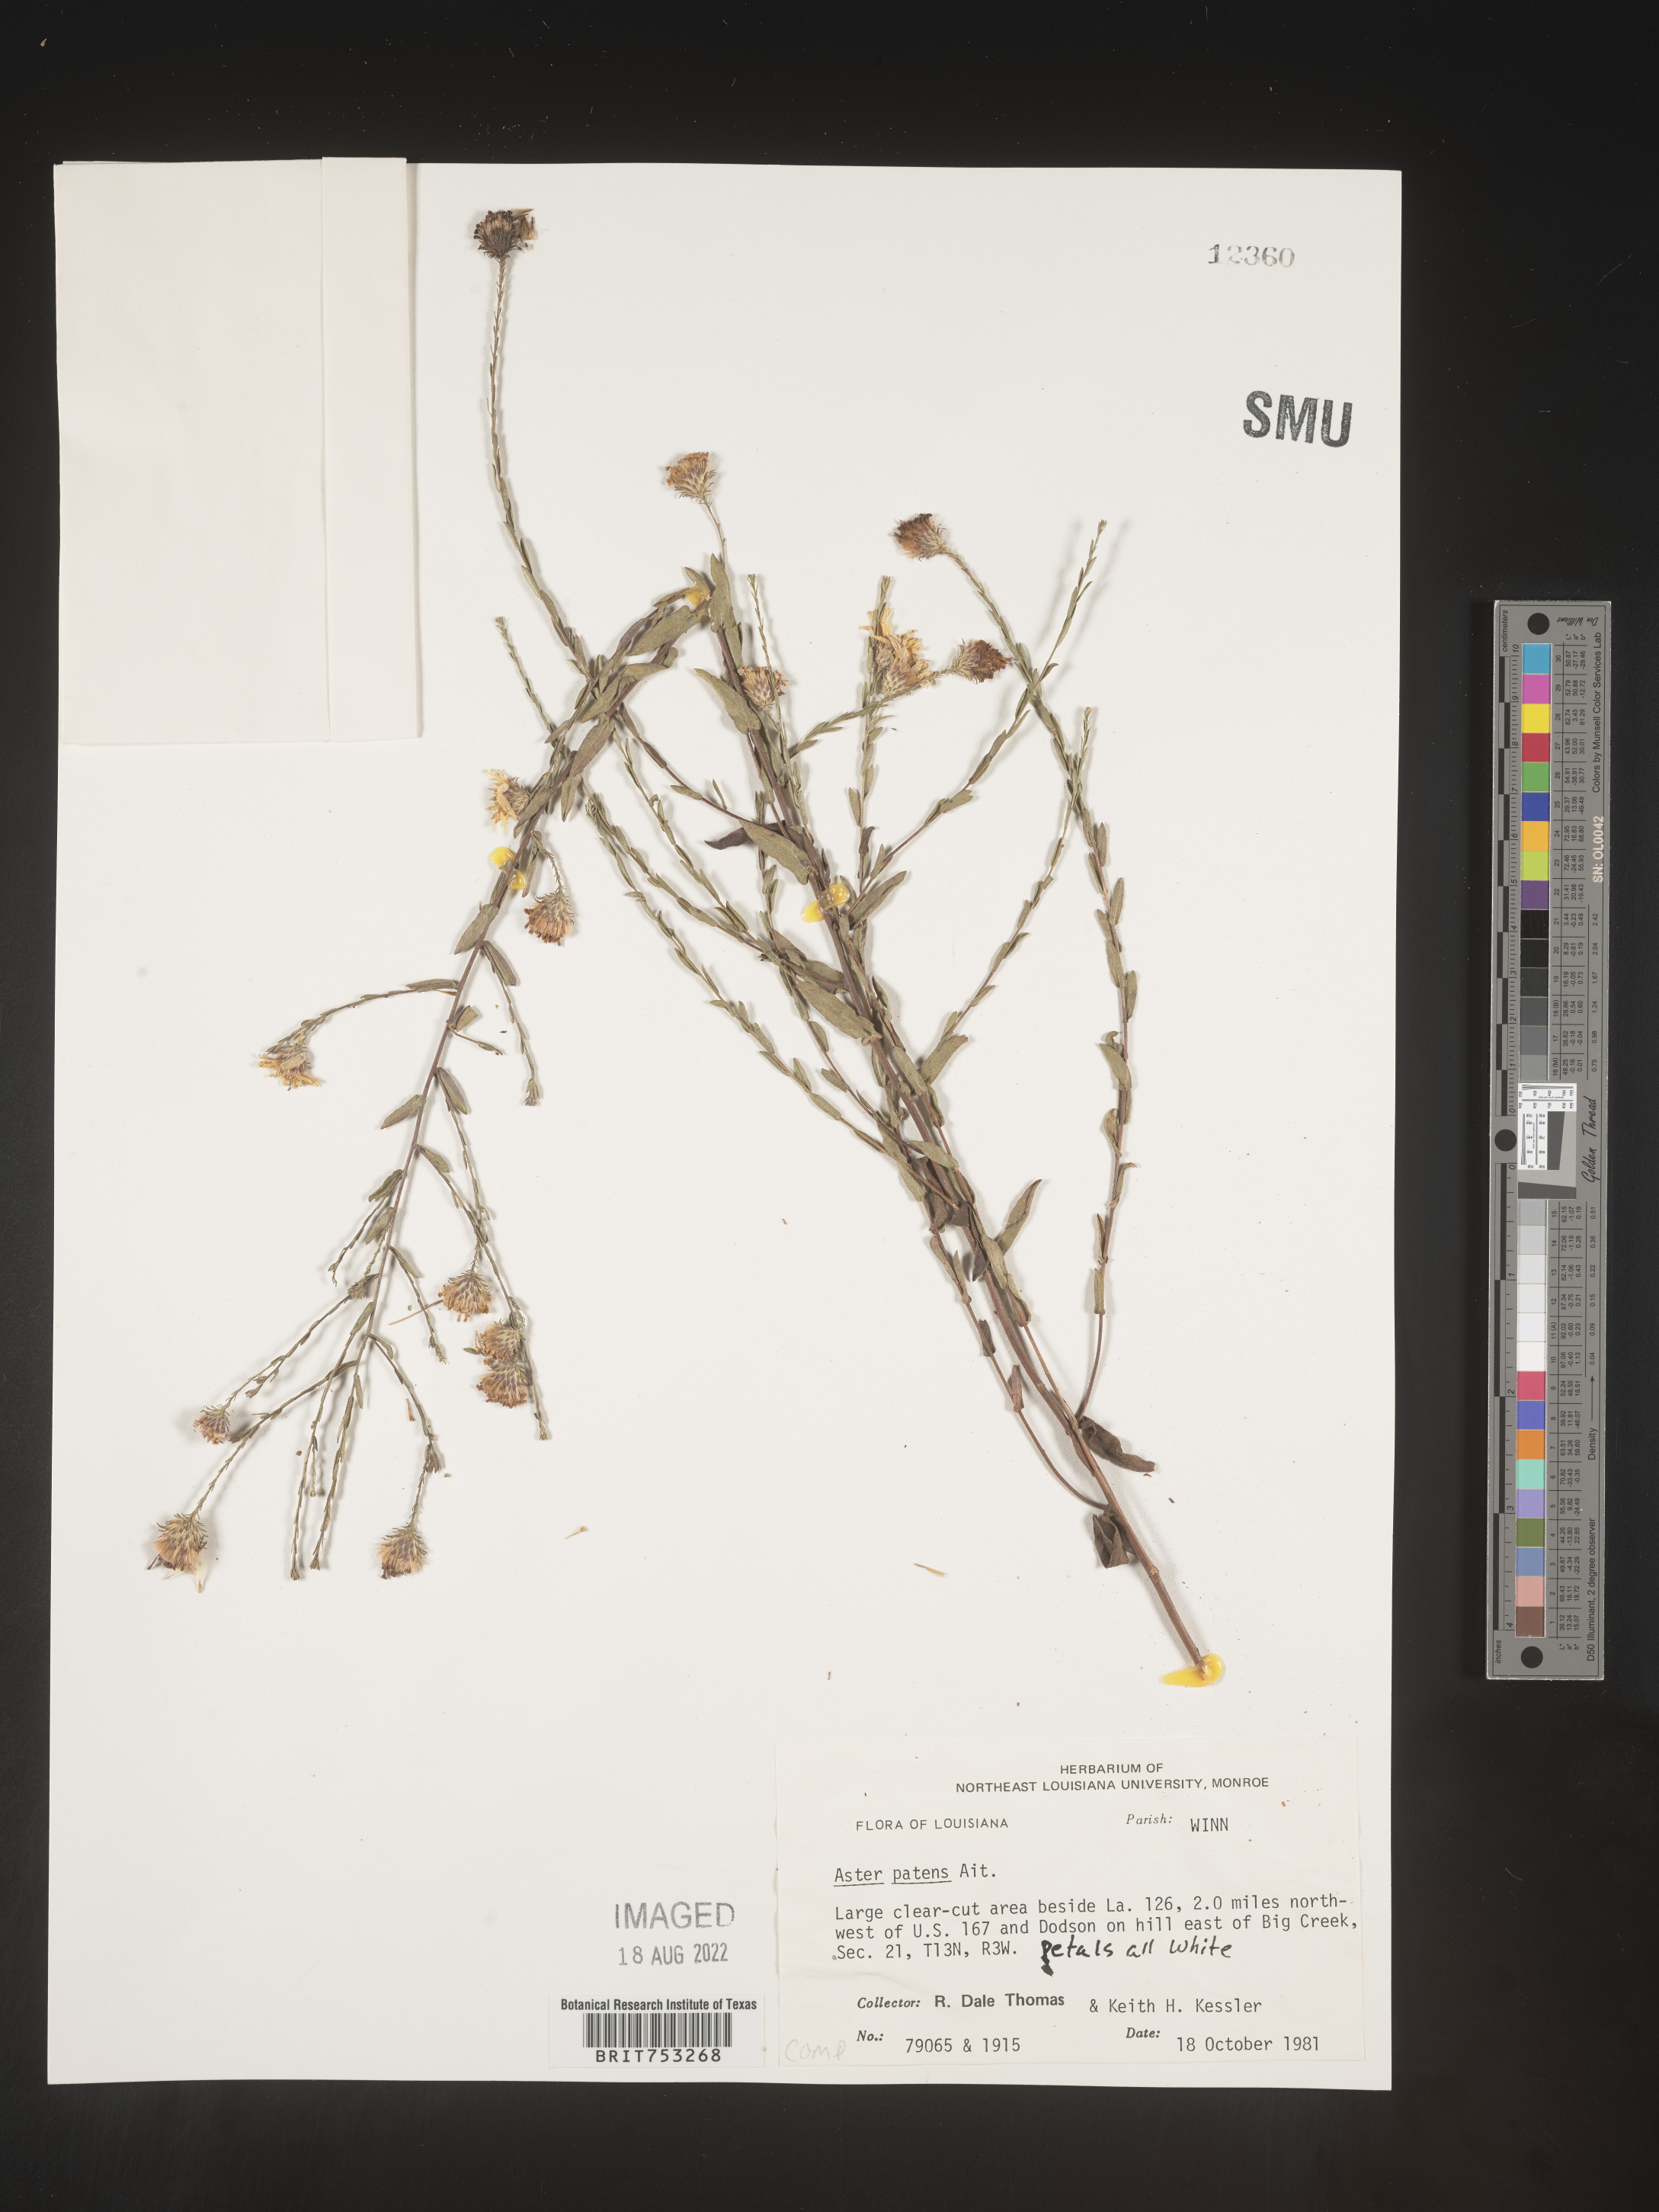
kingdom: Plantae
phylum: Tracheophyta
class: Magnoliopsida
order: Asterales
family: Asteraceae
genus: Symphyotrichum
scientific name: Symphyotrichum patens
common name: Late purple aster
